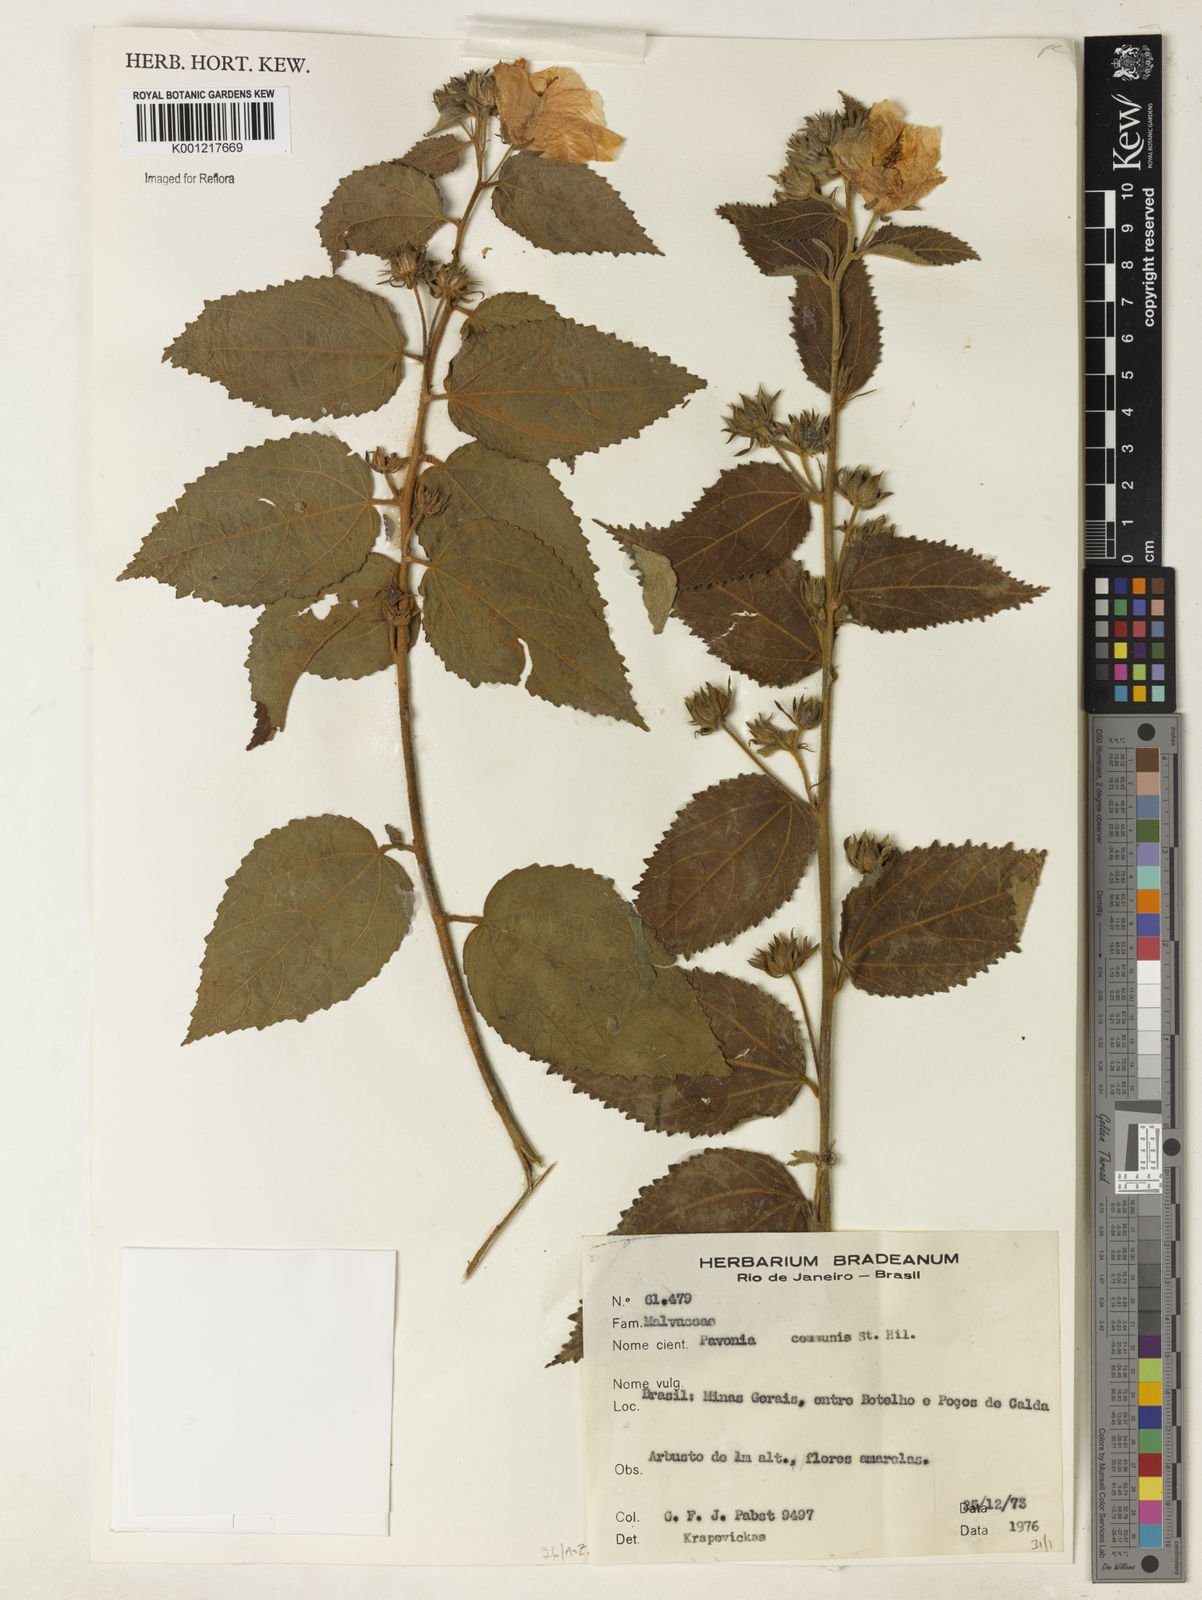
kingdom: Plantae
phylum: Tracheophyta
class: Magnoliopsida
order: Malvales
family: Malvaceae
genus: Pavonia
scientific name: Pavonia communis
